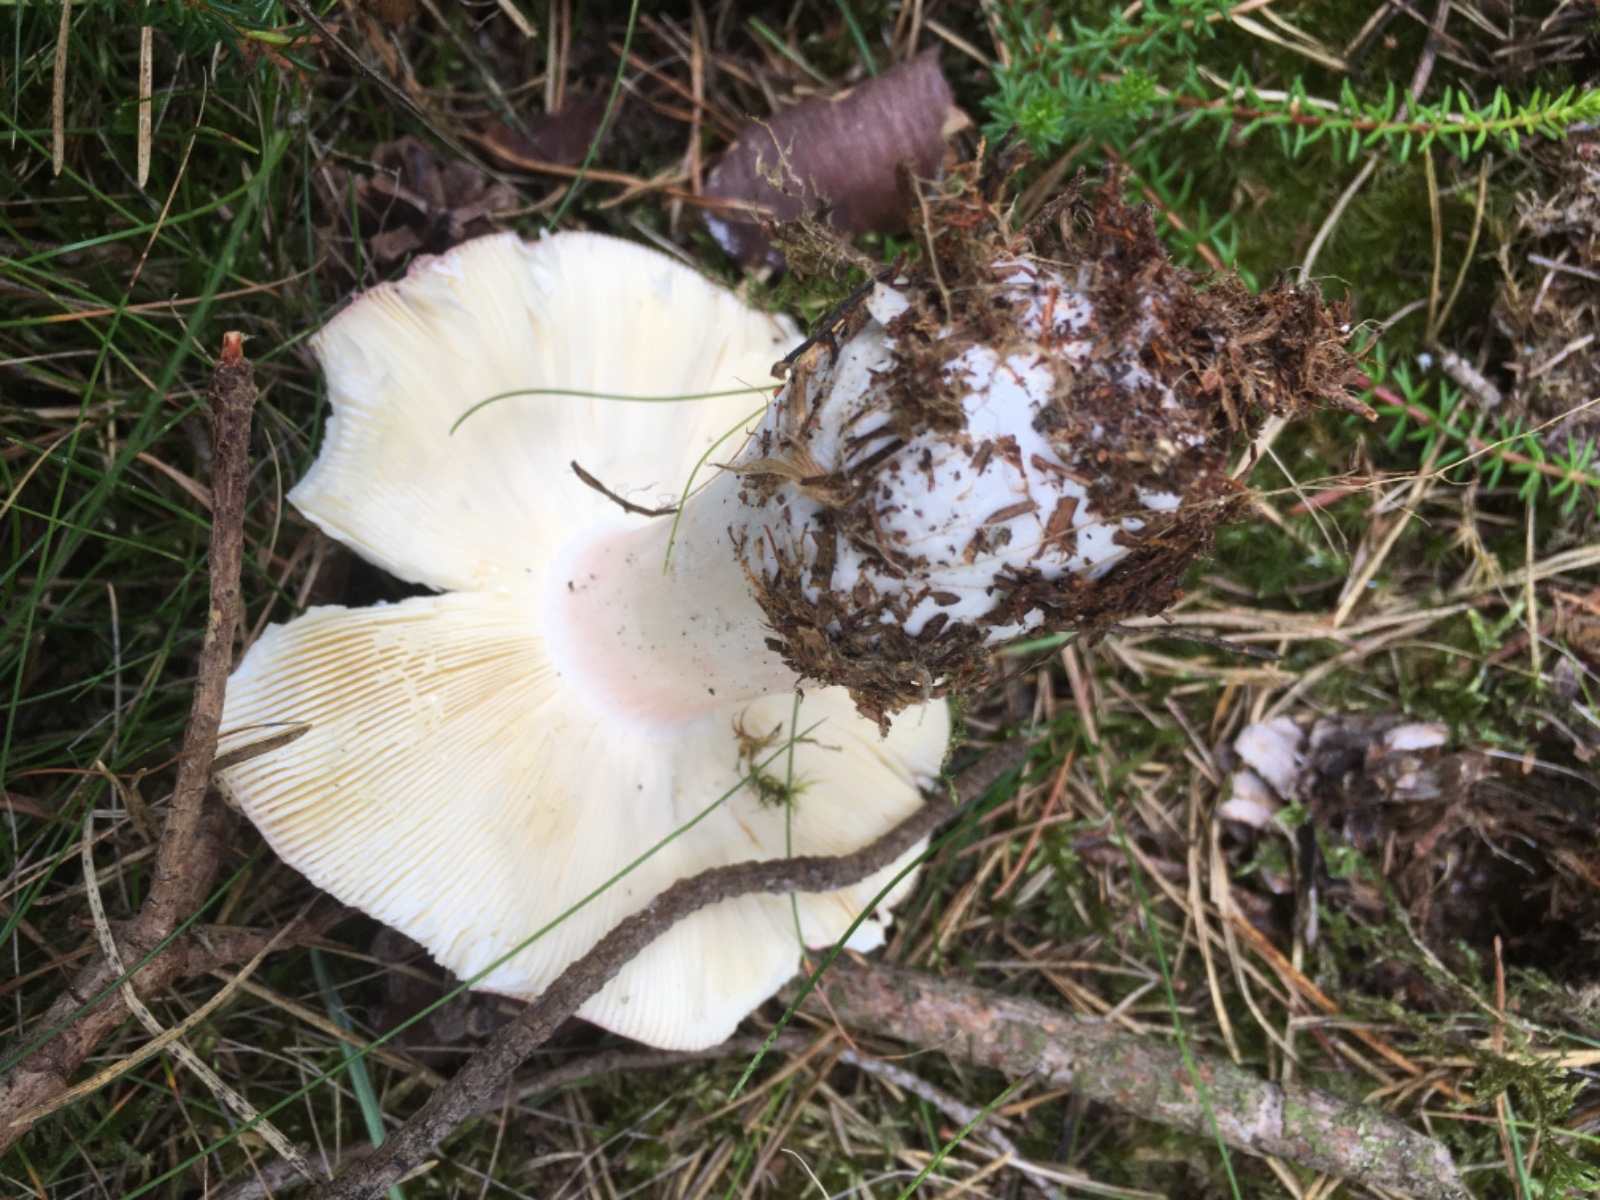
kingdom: Fungi
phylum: Basidiomycota
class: Agaricomycetes
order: Russulales
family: Russulaceae
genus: Russula
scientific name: Russula paludosa
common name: prægtig skørhat
